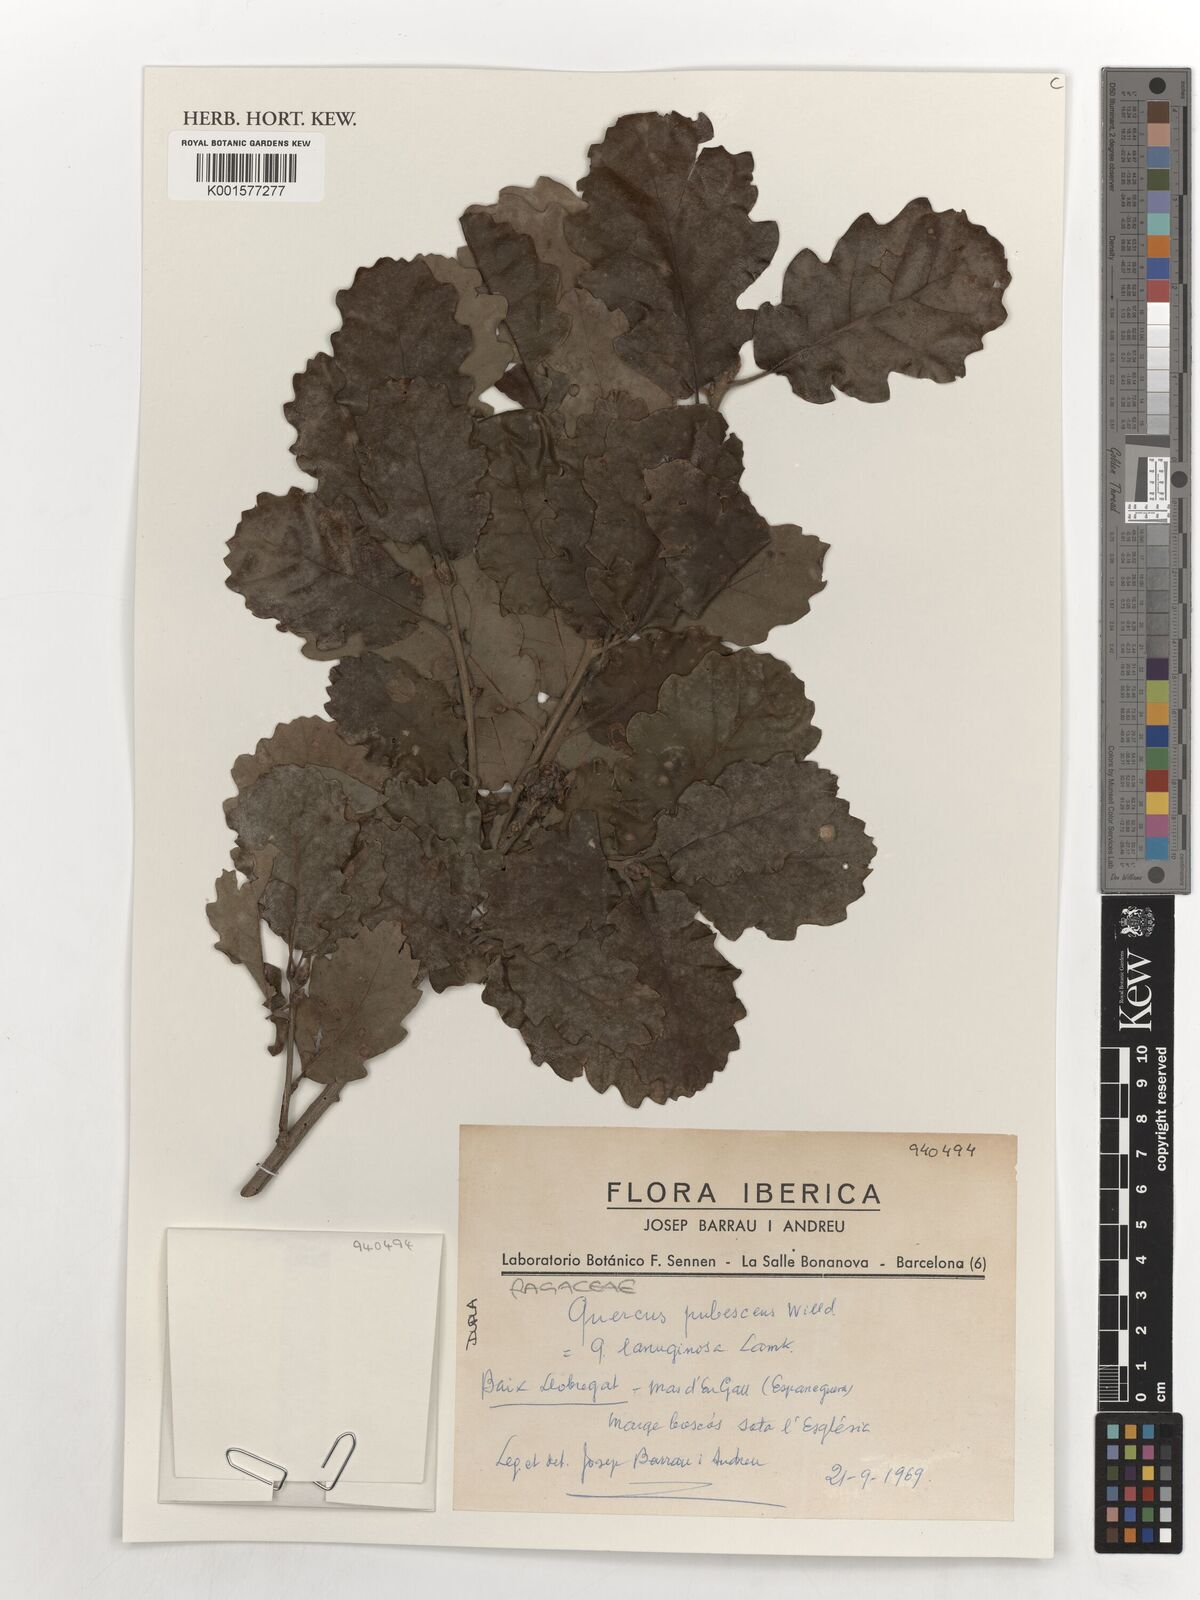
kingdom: Plantae
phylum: Tracheophyta
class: Magnoliopsida
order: Fagales
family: Fagaceae
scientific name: Fagaceae
